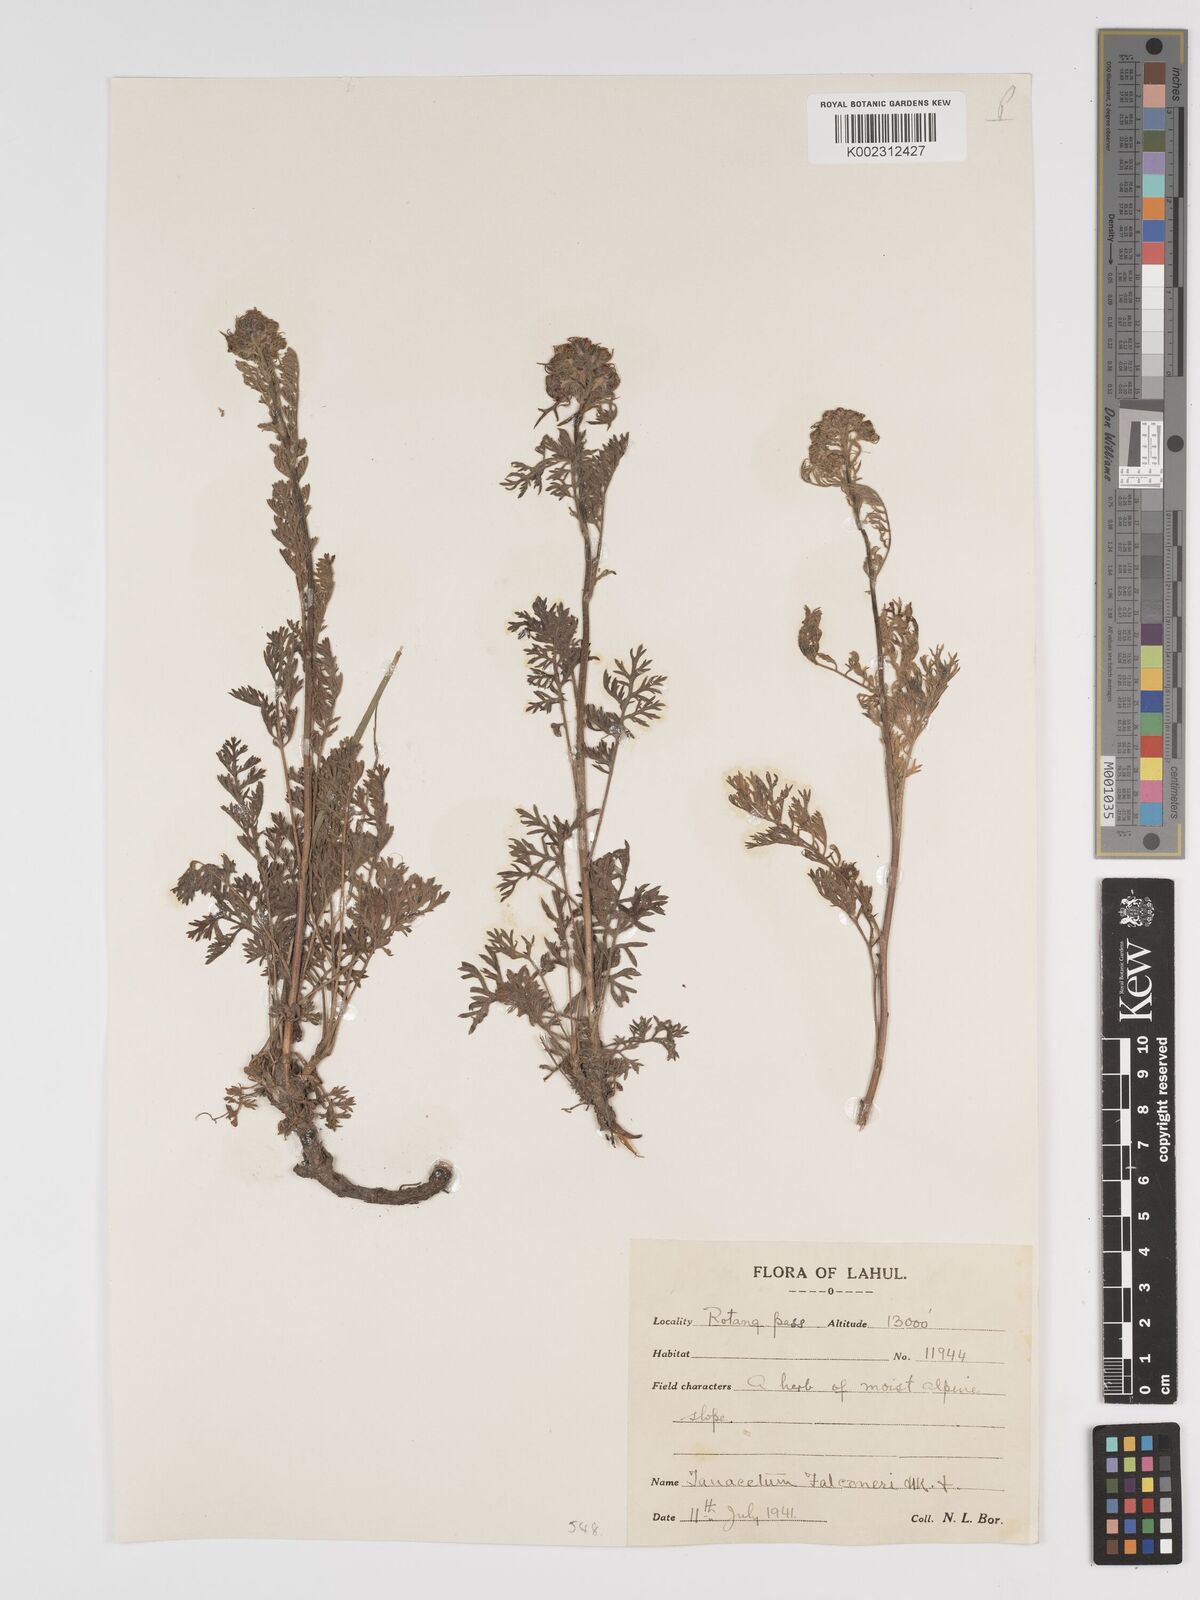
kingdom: Plantae
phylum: Tracheophyta
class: Magnoliopsida
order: Asterales
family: Asteraceae
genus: Tanacetum
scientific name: Tanacetum falconeri
